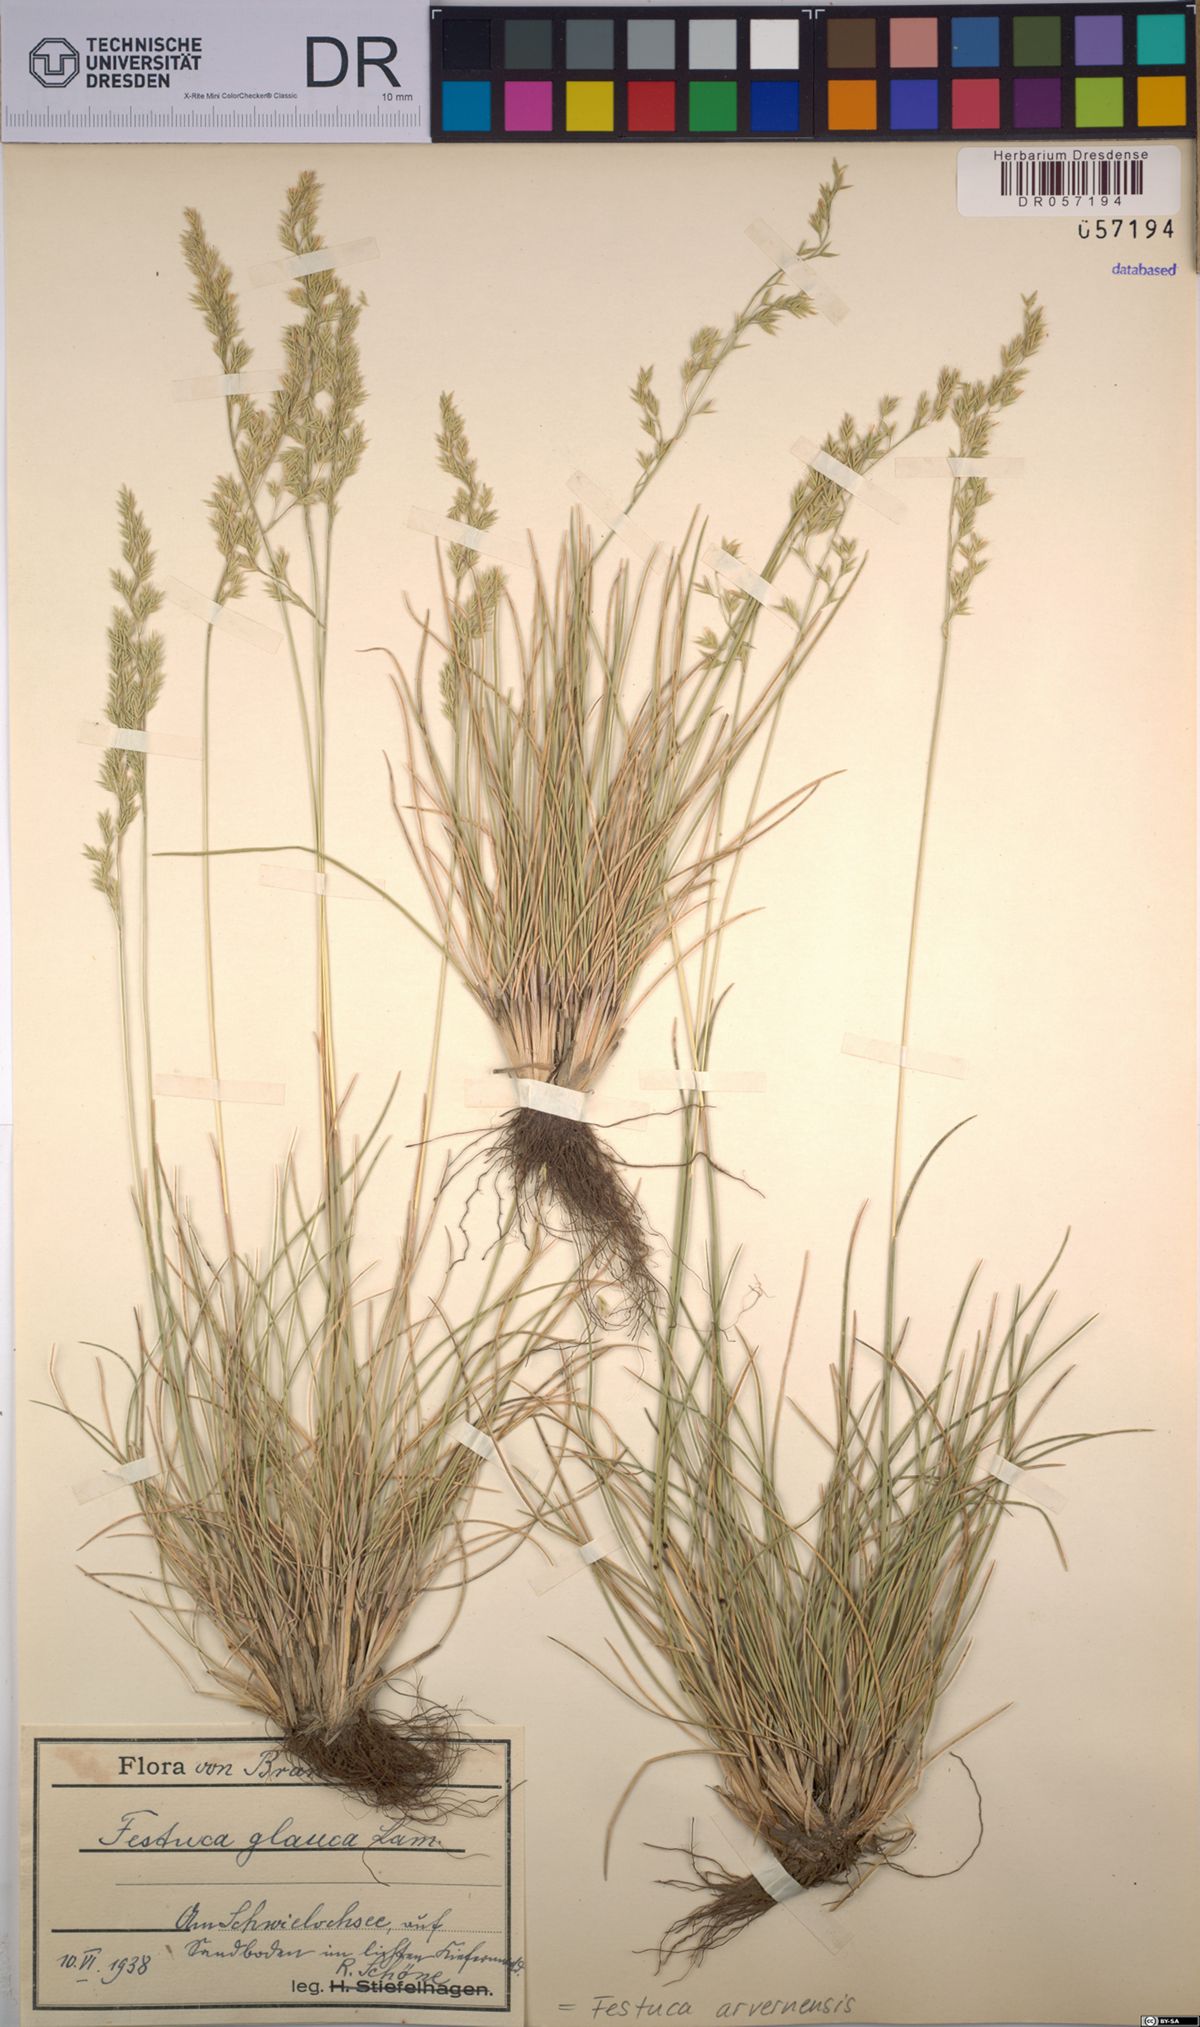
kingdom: Plantae
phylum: Tracheophyta
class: Liliopsida
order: Poales
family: Poaceae
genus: Festuca
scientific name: Festuca arvernensis
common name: Field fescue
